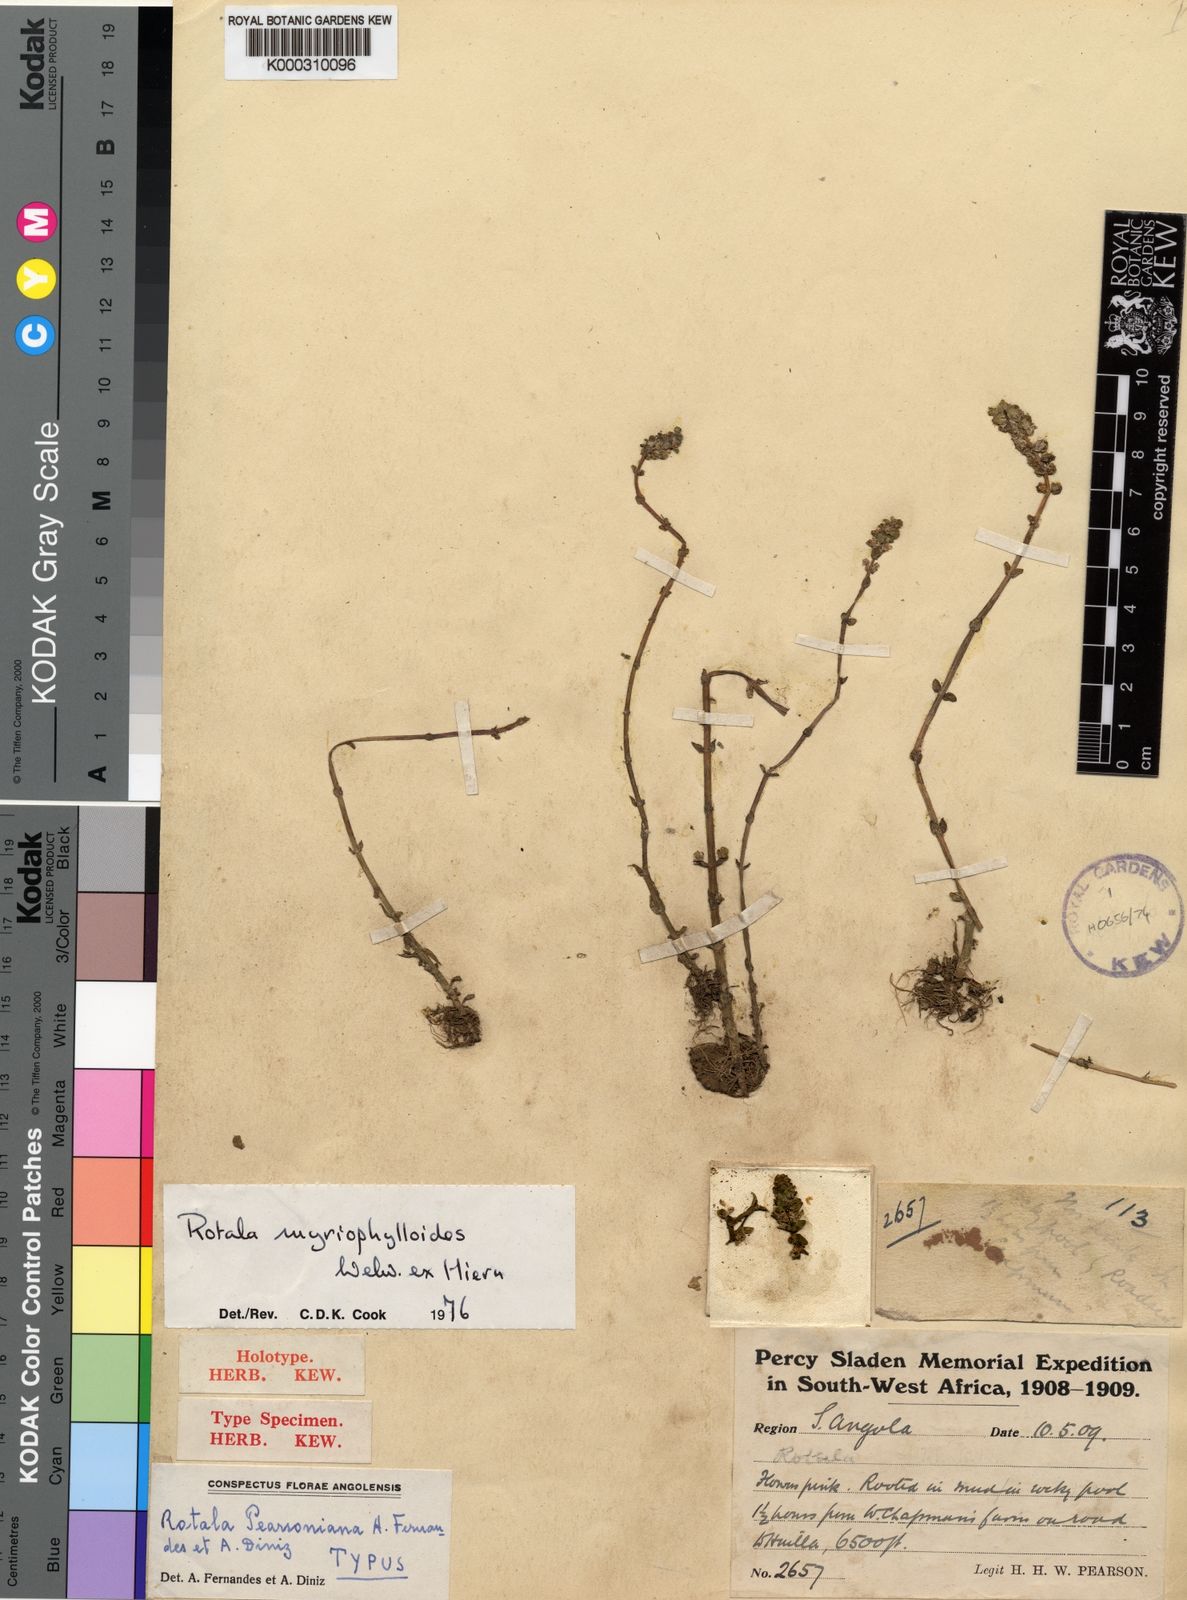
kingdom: Plantae
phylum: Tracheophyta
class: Magnoliopsida
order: Myrtales
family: Lythraceae
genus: Rotala
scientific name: Rotala myriophylloides
